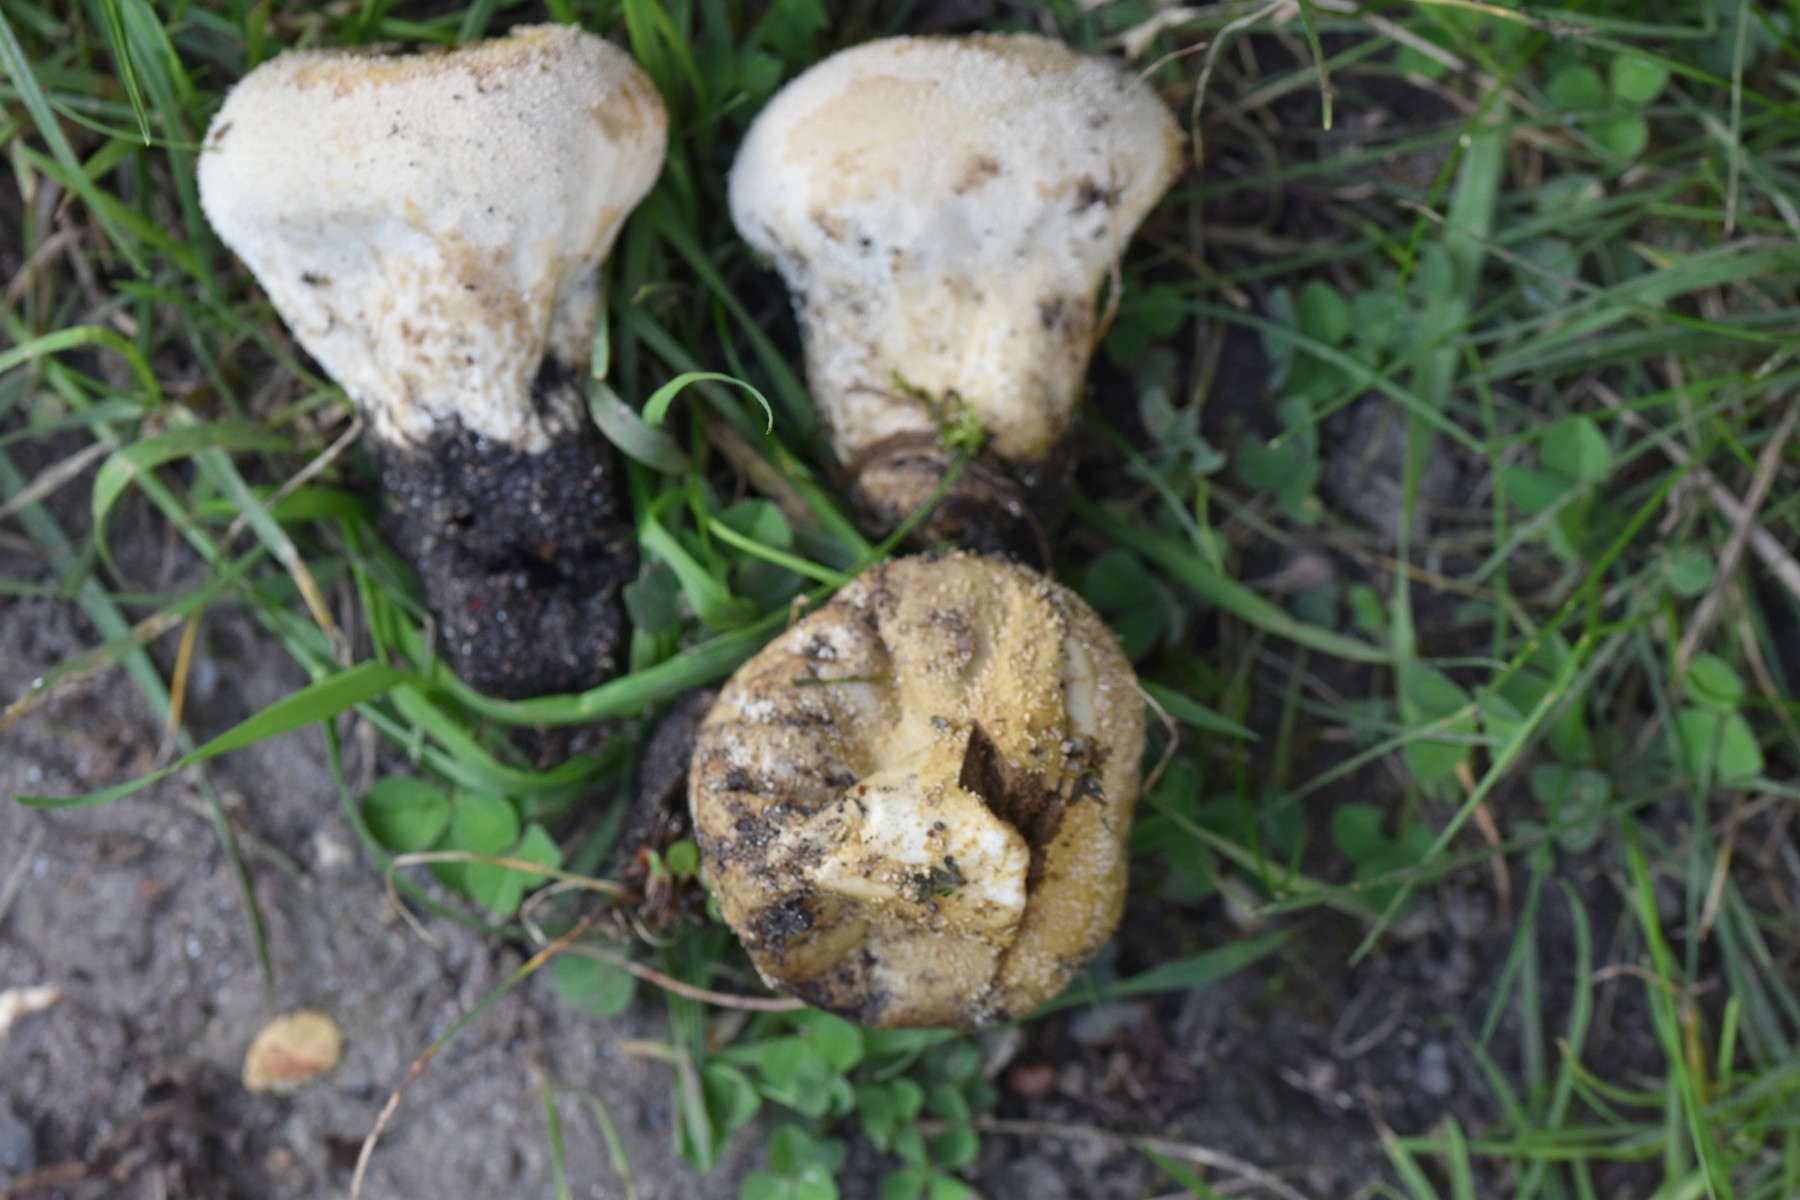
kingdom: Fungi
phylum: Basidiomycota
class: Agaricomycetes
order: Agaricales
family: Lycoperdaceae
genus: Lycoperdon
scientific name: Lycoperdon pratense
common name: flad støvbold
